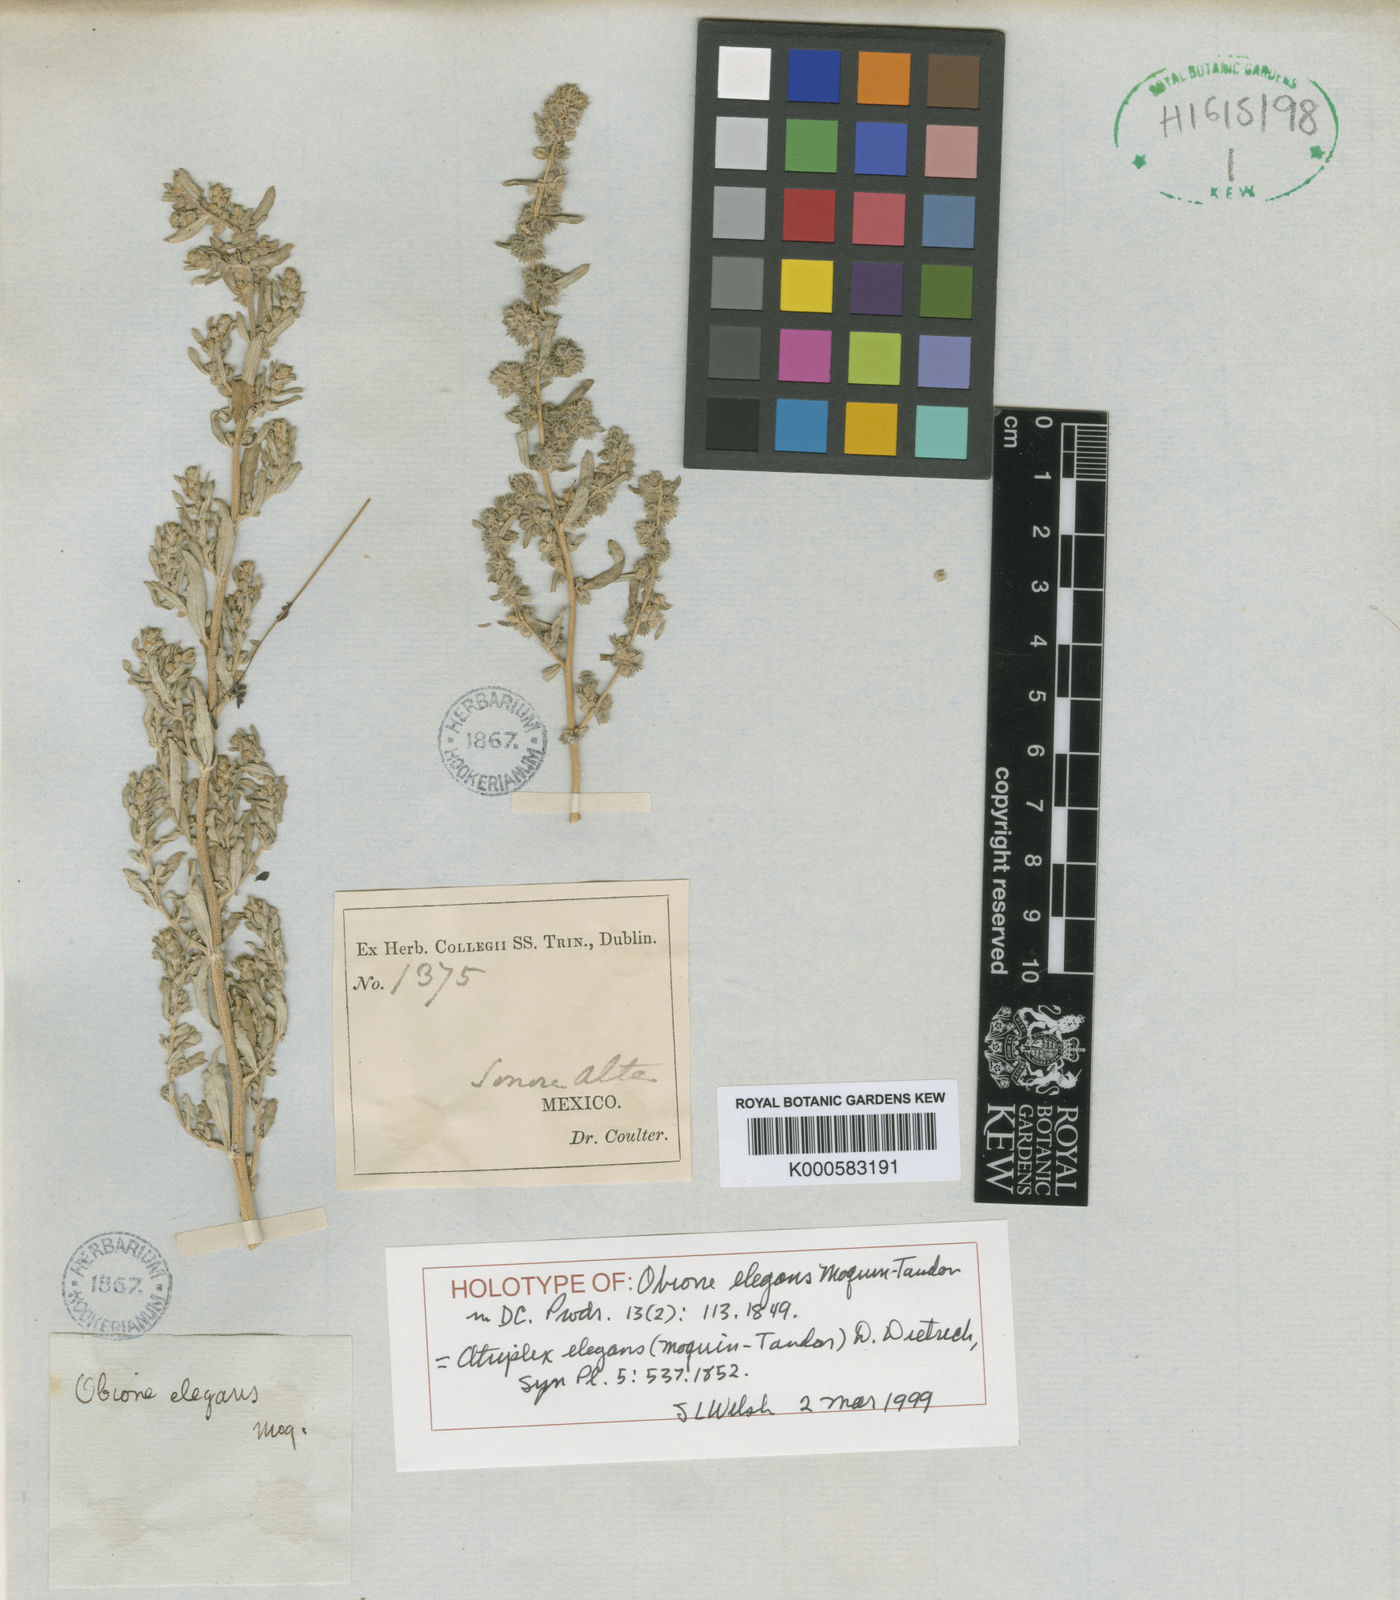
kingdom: Plantae
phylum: Tracheophyta
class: Magnoliopsida
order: Caryophyllales
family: Amaranthaceae
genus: Atriplex
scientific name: Atriplex elegans
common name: Wheelscale orach
